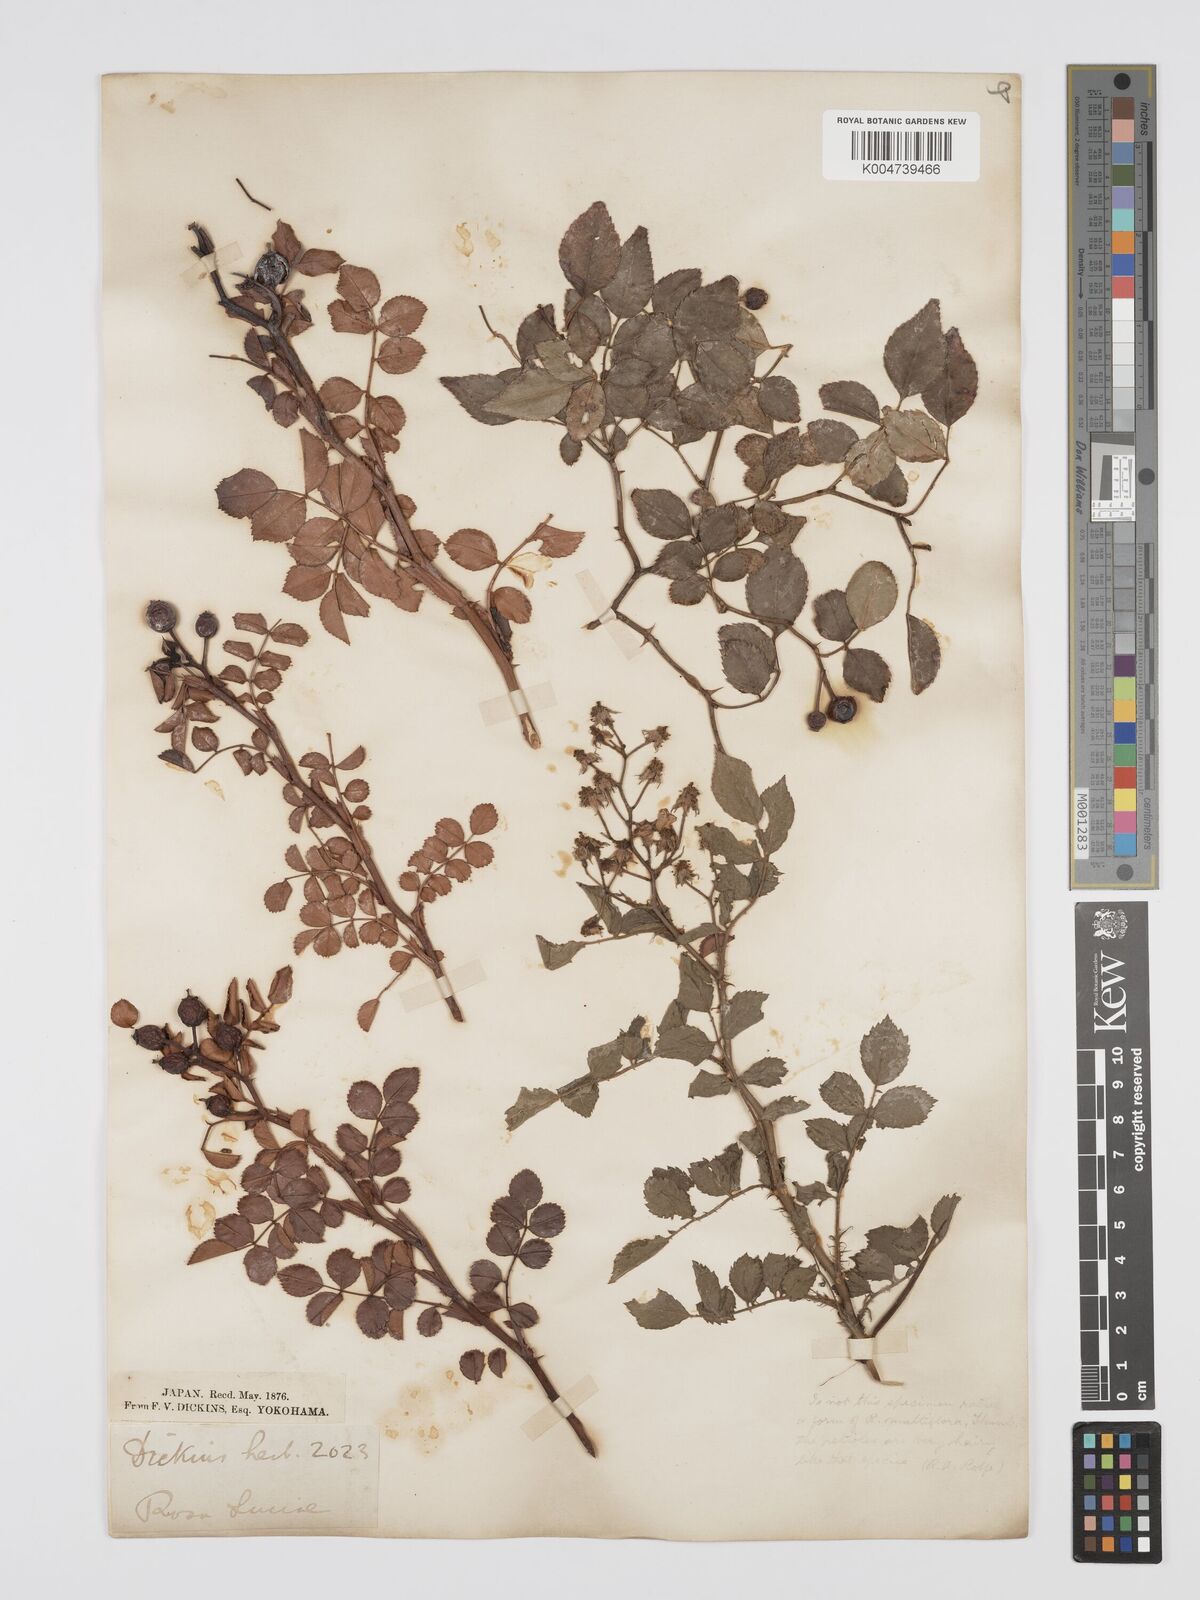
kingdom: Plantae
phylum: Tracheophyta
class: Magnoliopsida
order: Rosales
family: Rosaceae
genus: Rosa
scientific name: Rosa
